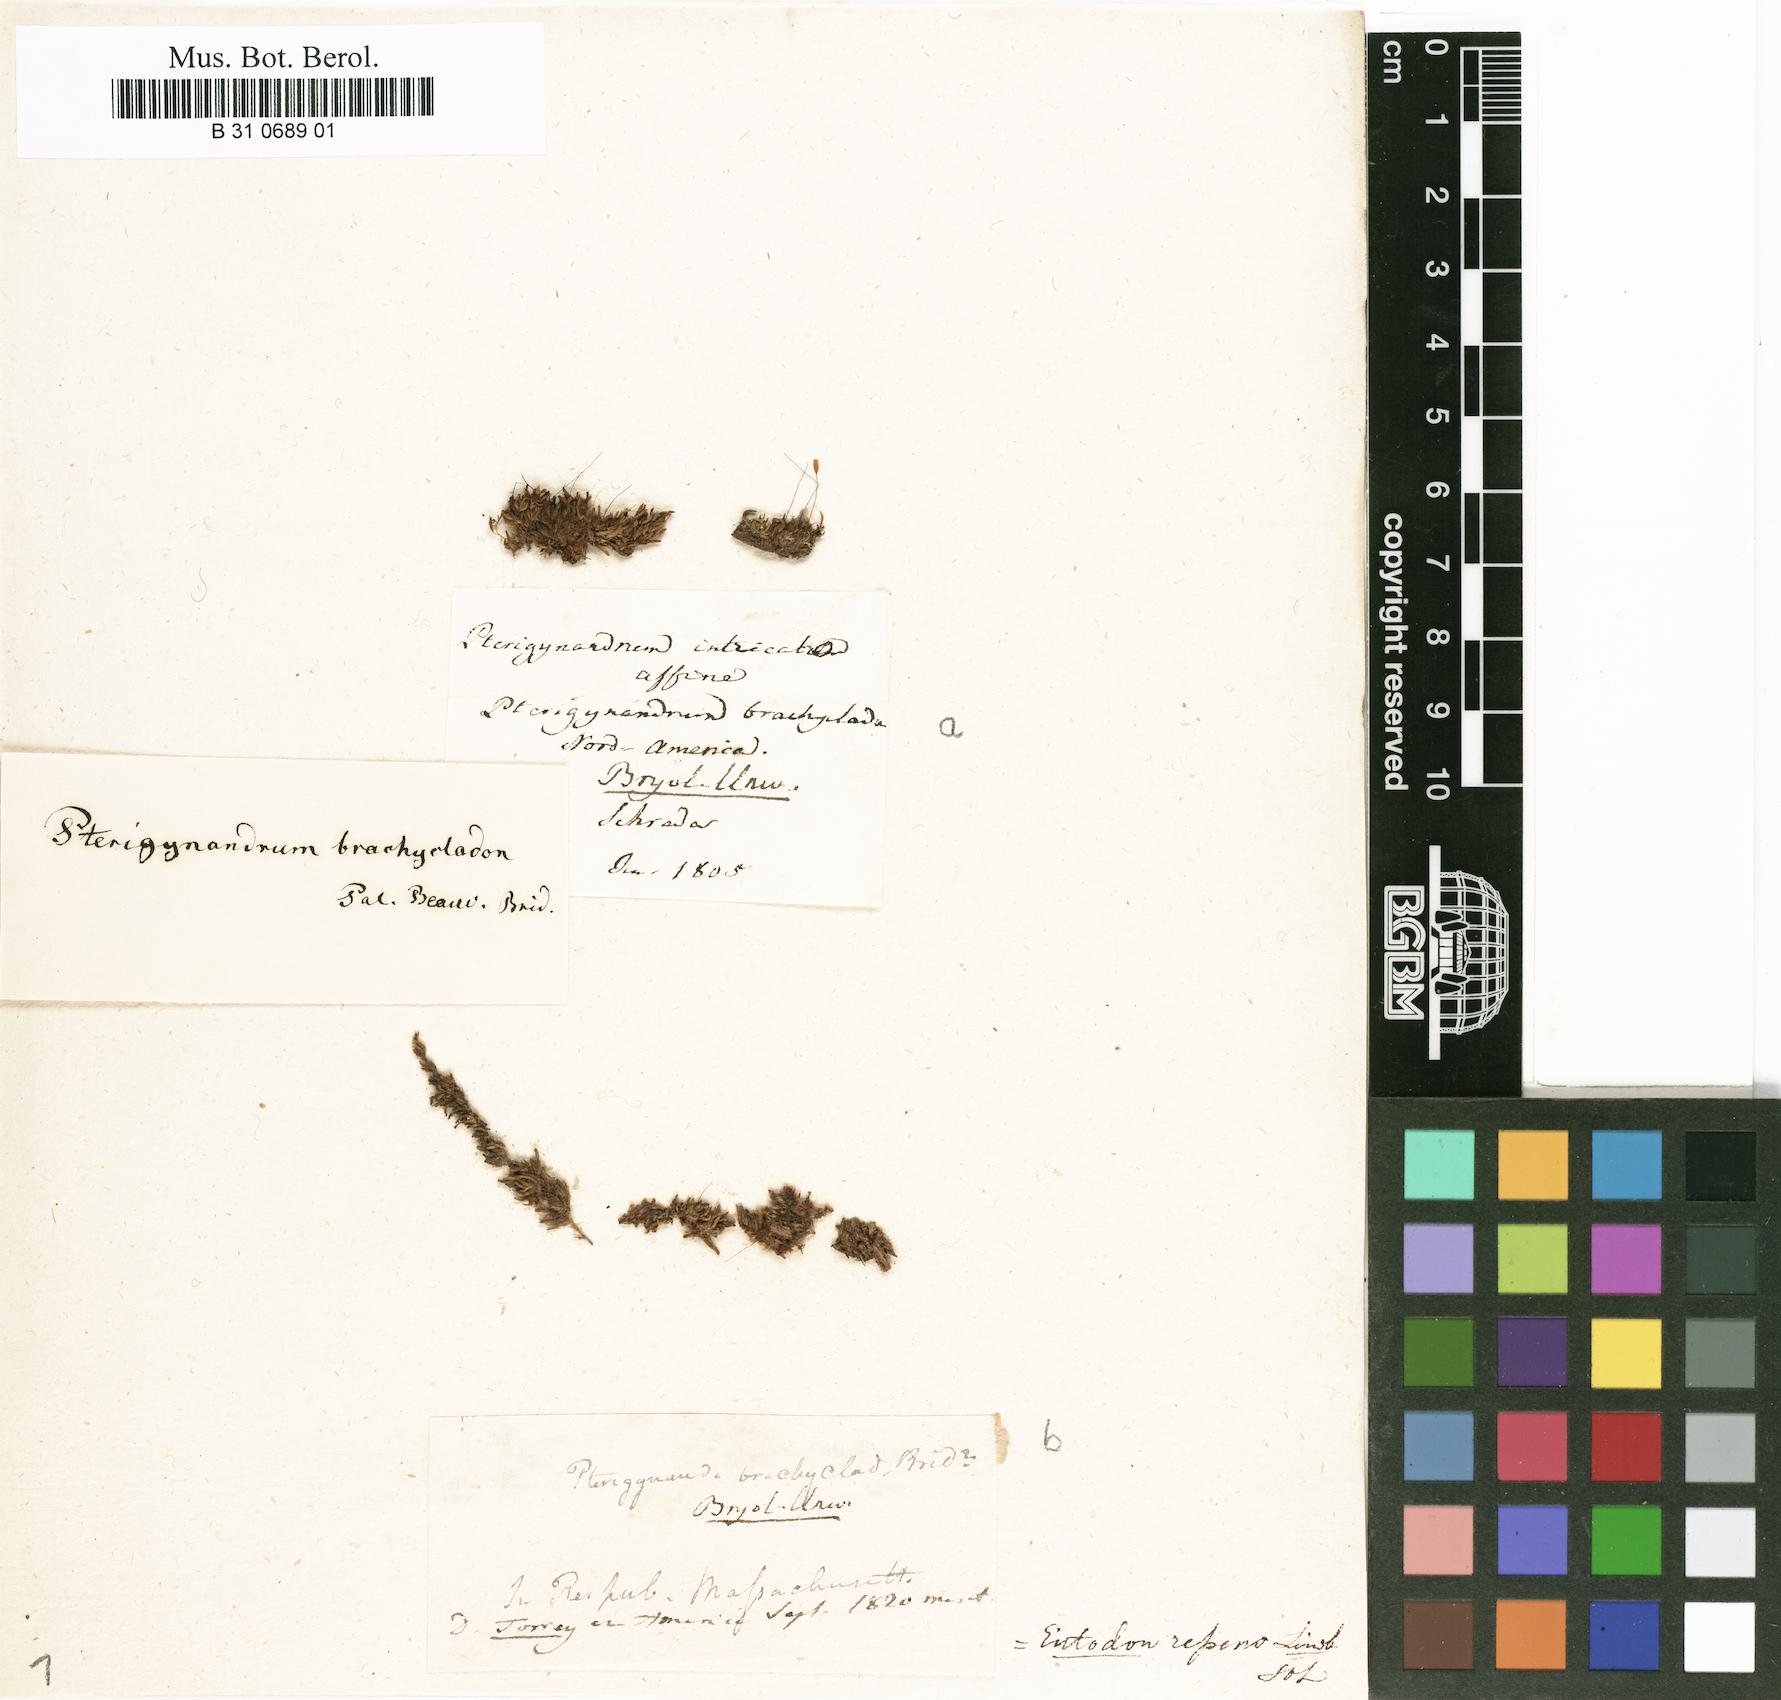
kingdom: Plantae
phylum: Bryophyta
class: Bryopsida
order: Hypnales
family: Brachytheciaceae
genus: Homalotheciella
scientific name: Homalotheciella subcapillata
